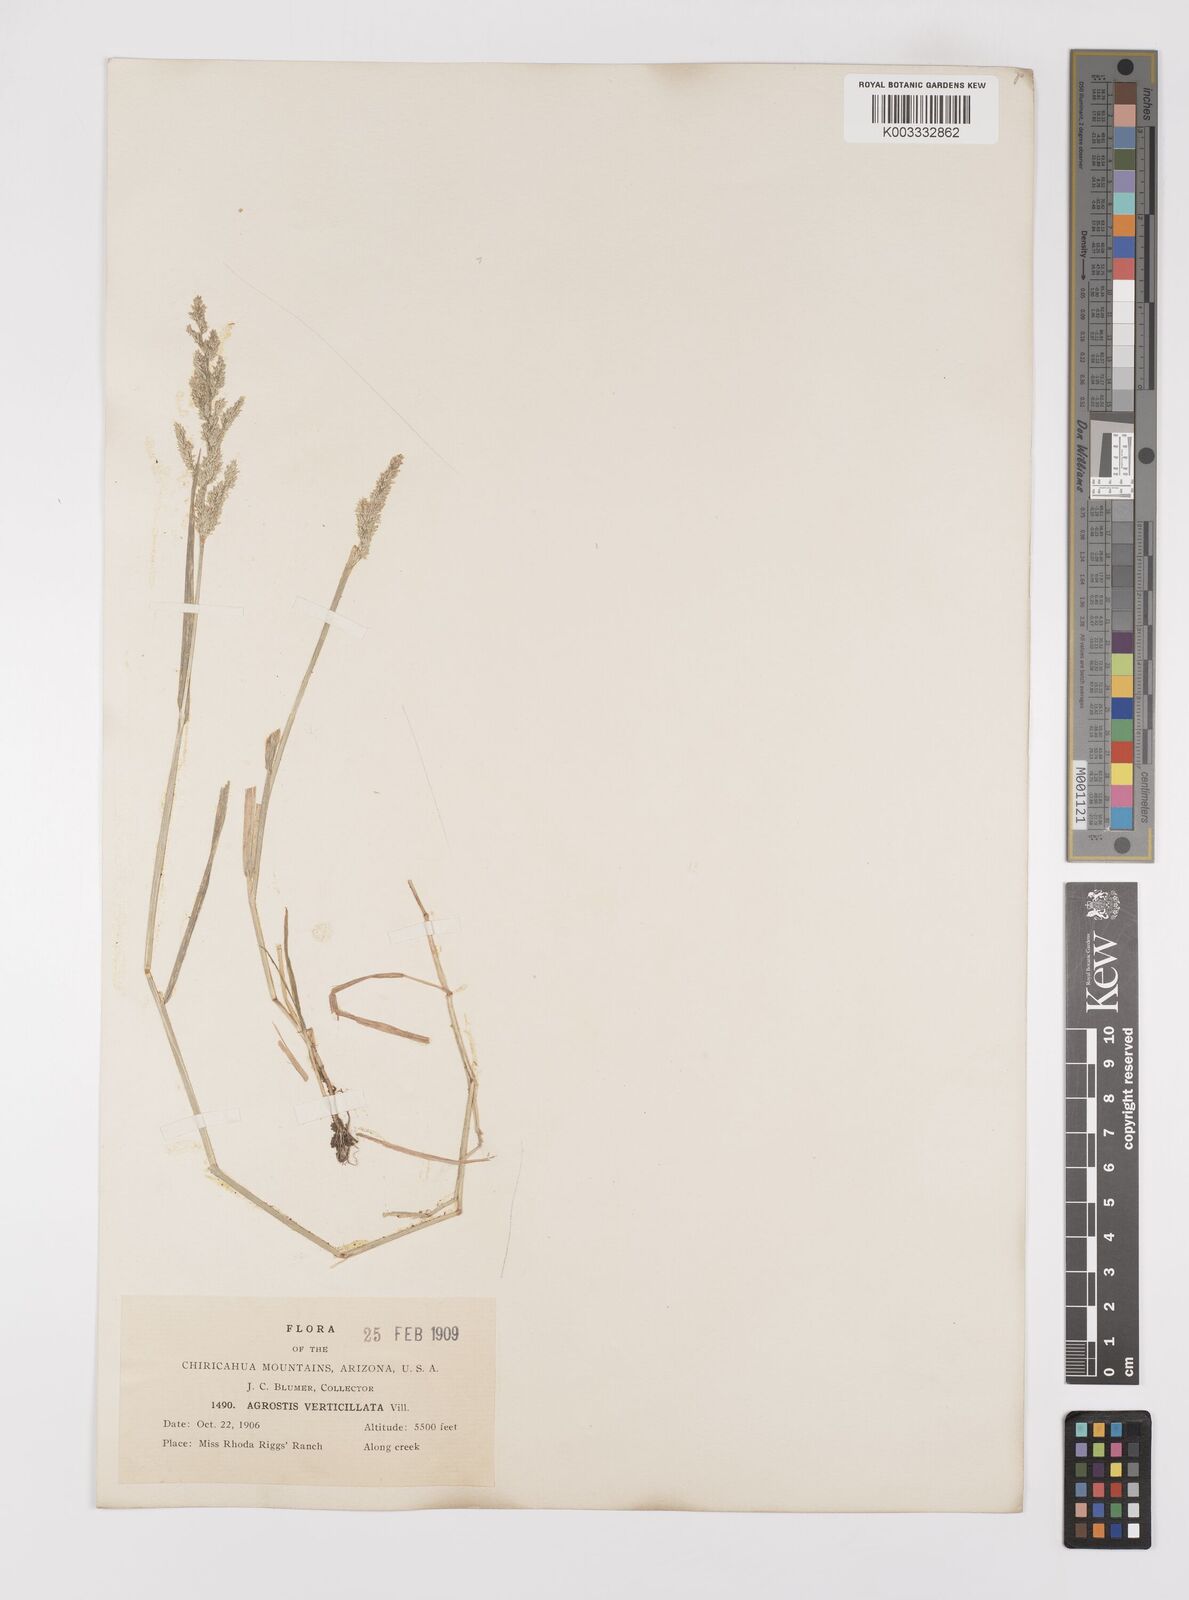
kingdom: Plantae
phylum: Tracheophyta
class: Liliopsida
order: Poales
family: Poaceae
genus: Polypogon
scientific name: Polypogon viridis
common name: Water bent
